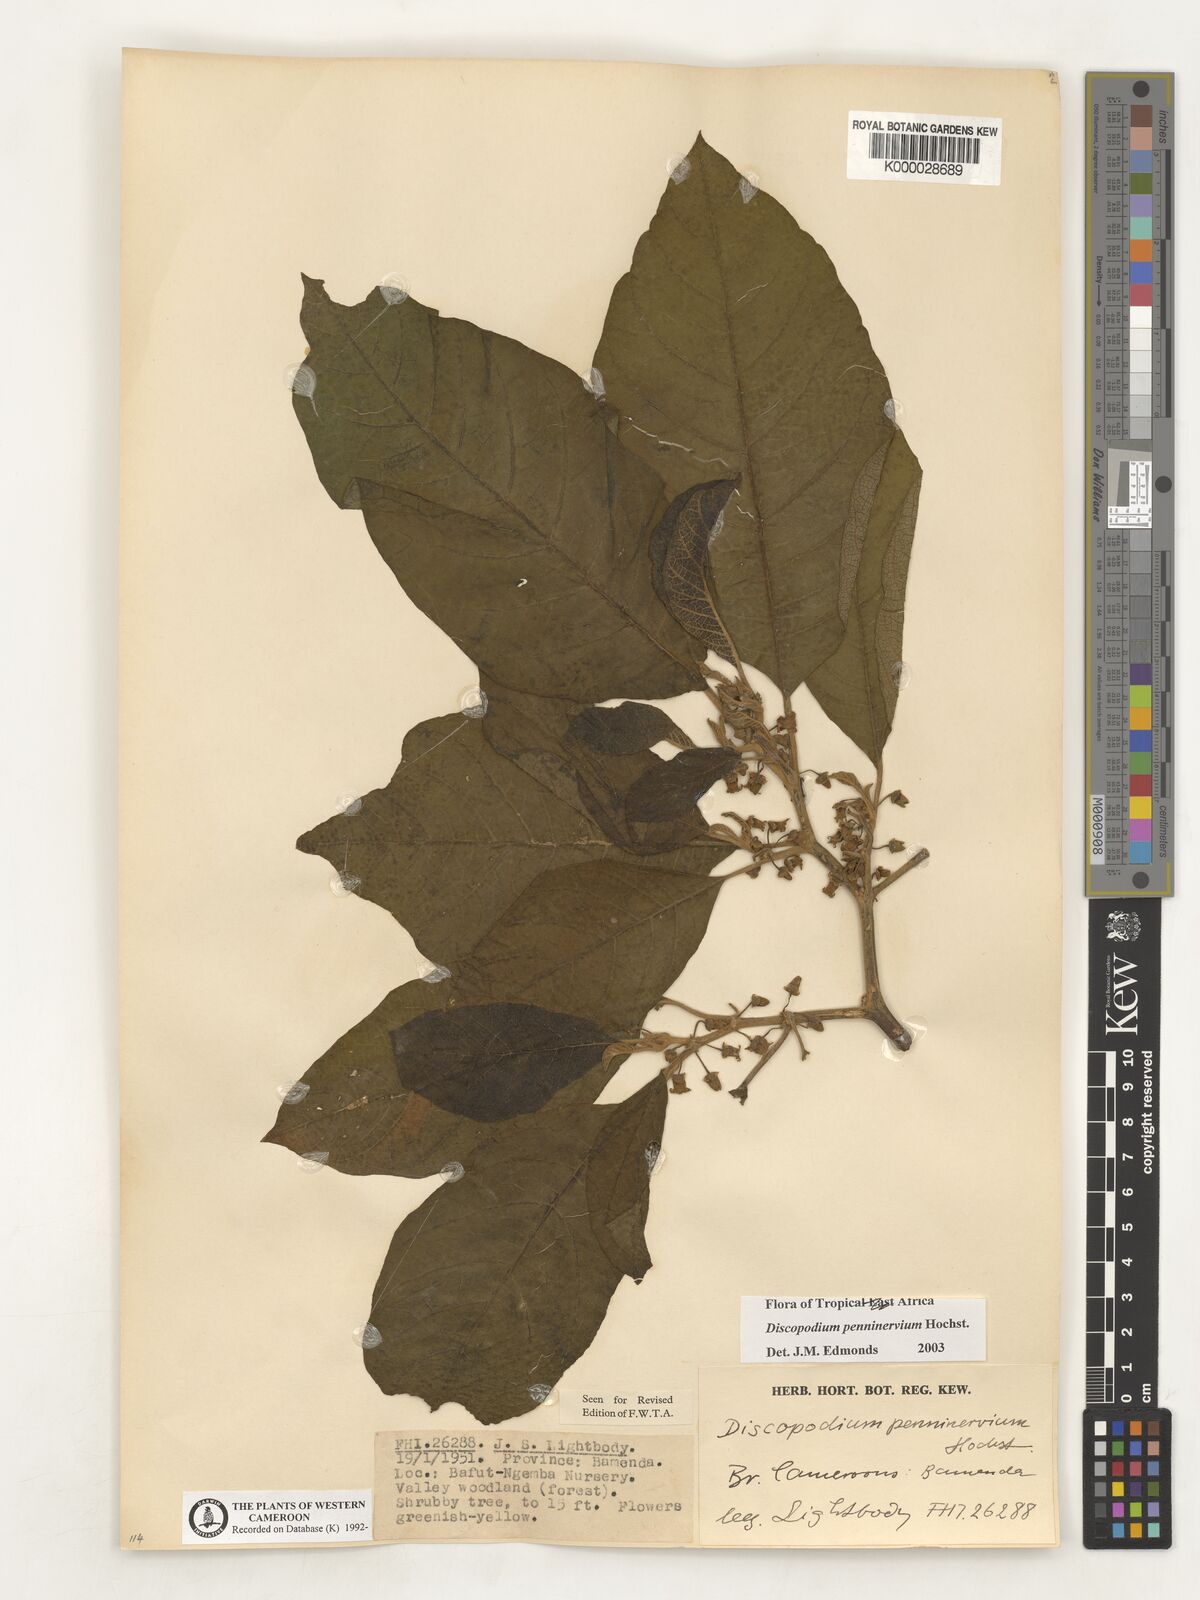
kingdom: Plantae
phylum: Tracheophyta
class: Magnoliopsida
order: Solanales
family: Solanaceae
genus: Discopodium
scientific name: Discopodium penninervium
